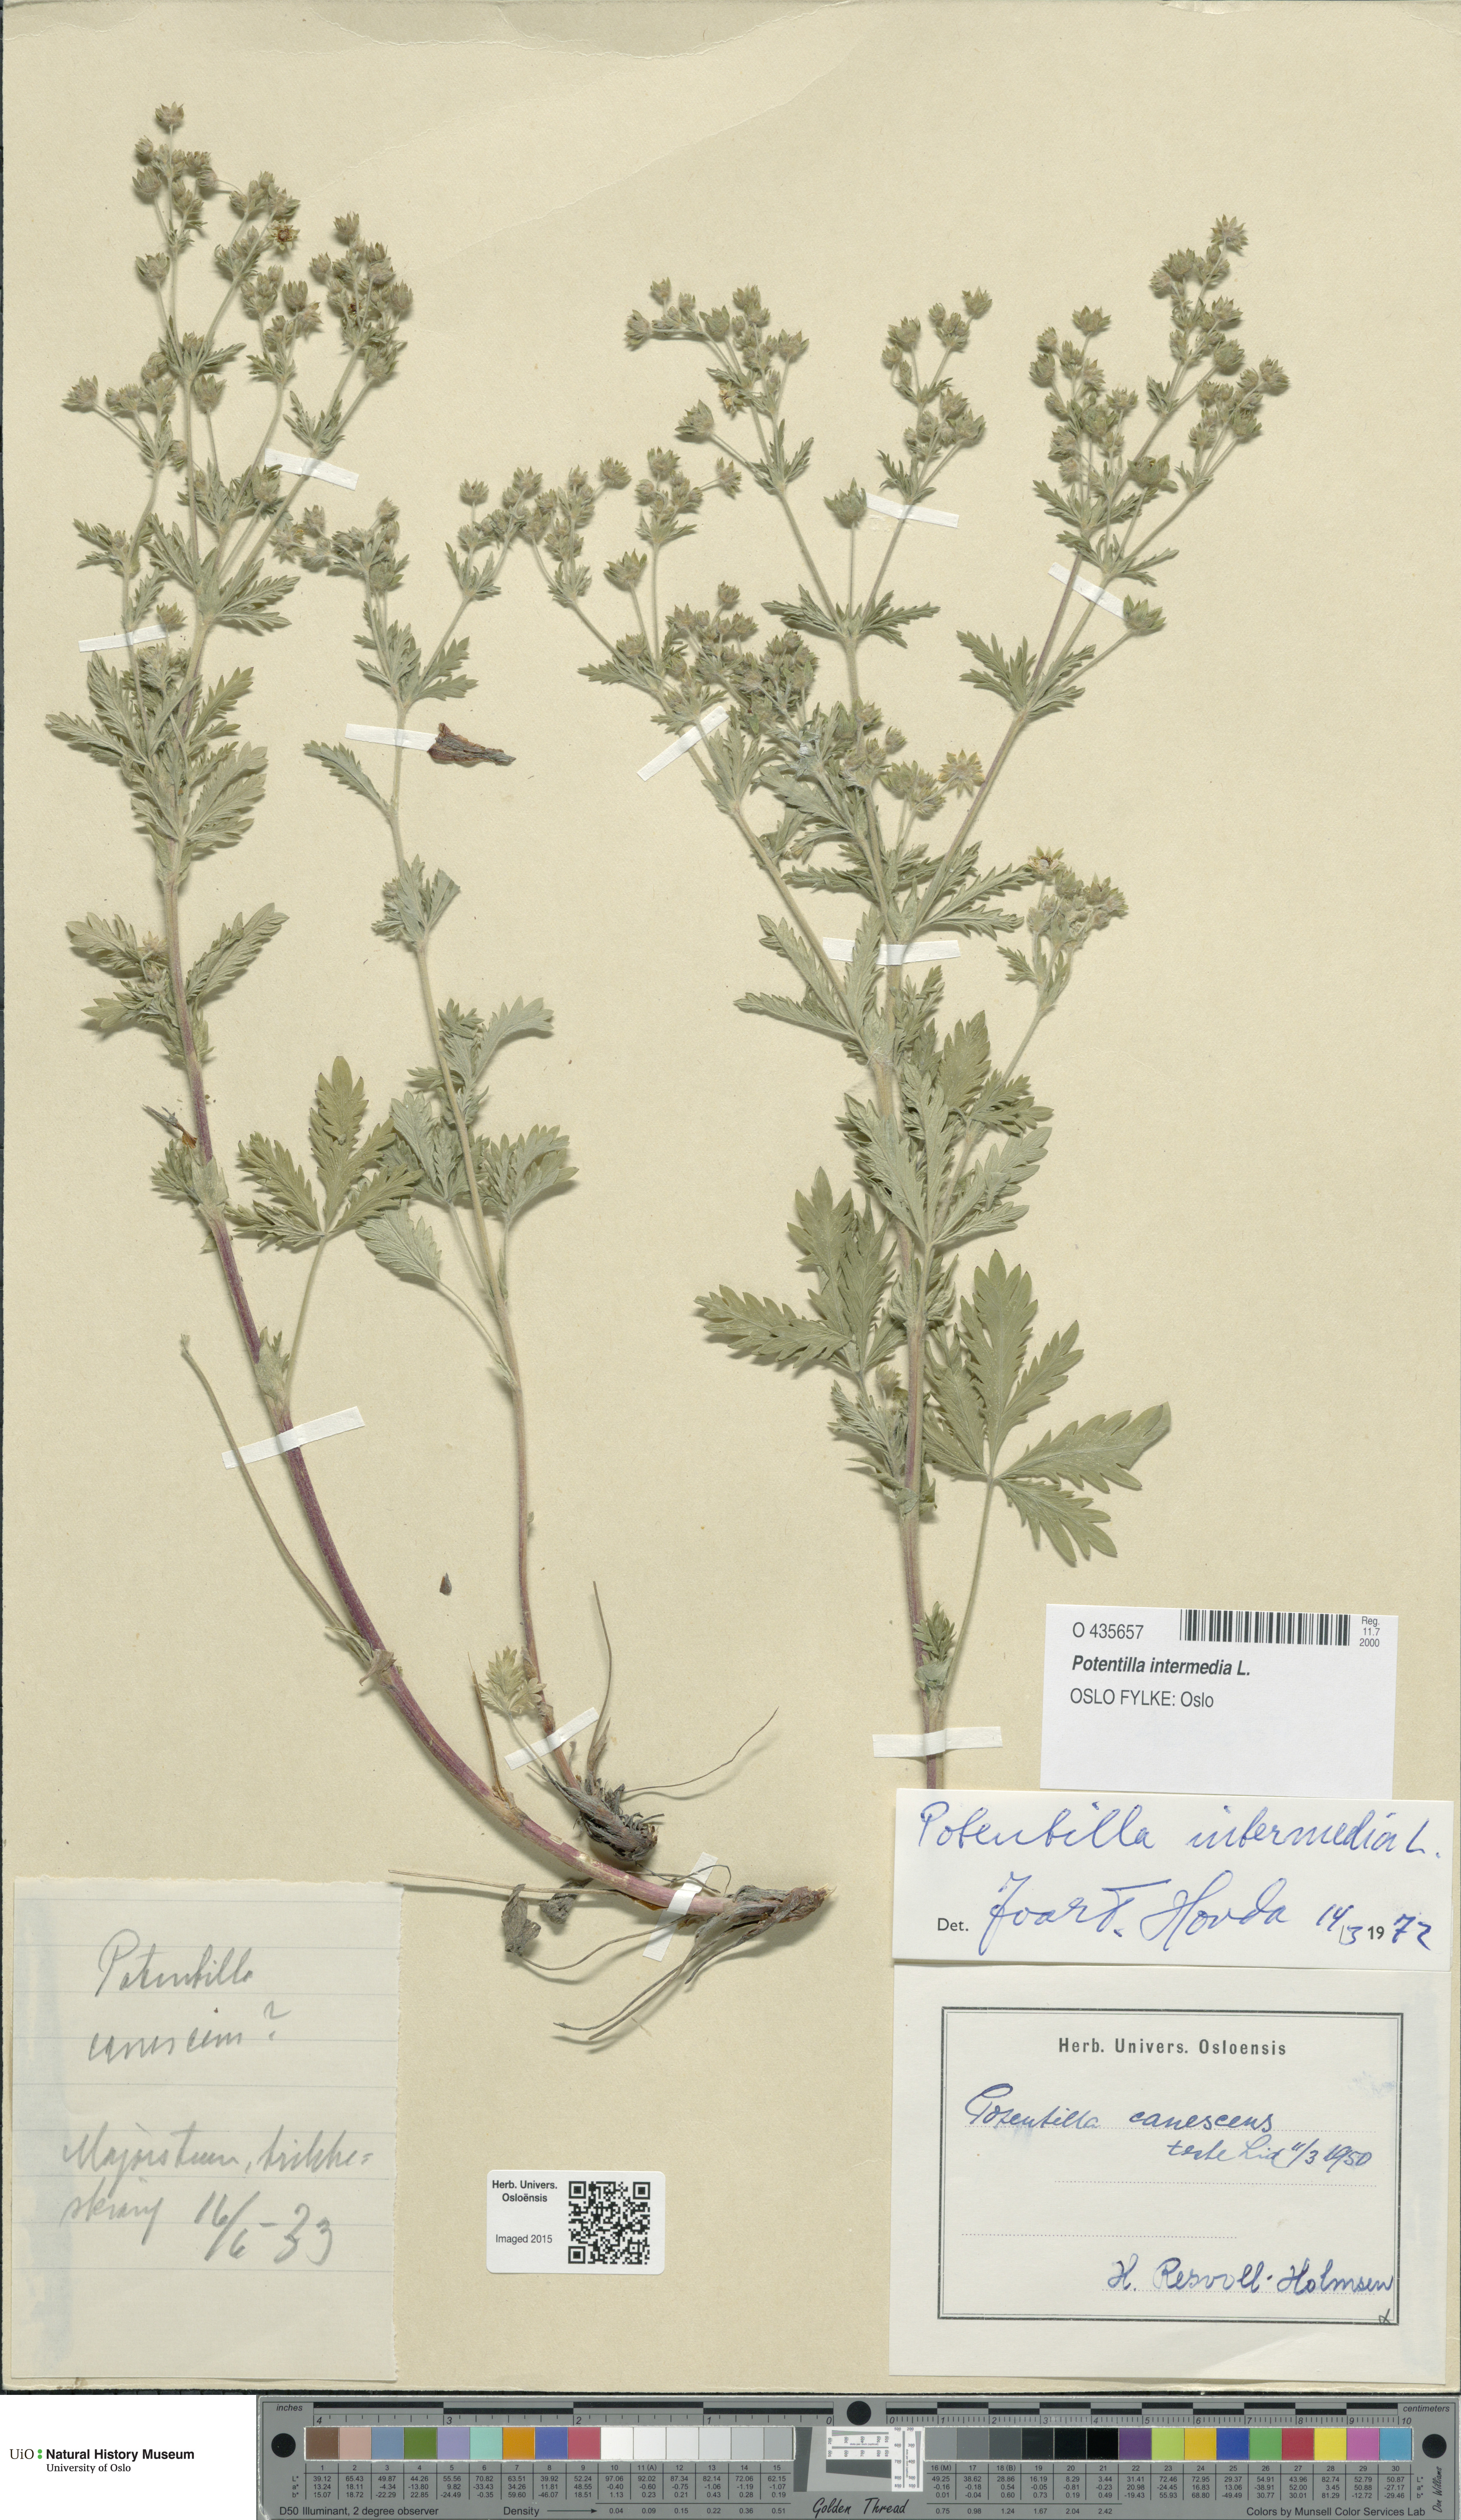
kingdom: Plantae
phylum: Tracheophyta
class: Magnoliopsida
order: Rosales
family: Rosaceae
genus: Potentilla
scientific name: Potentilla intermedia
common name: Downy cinquefoil
